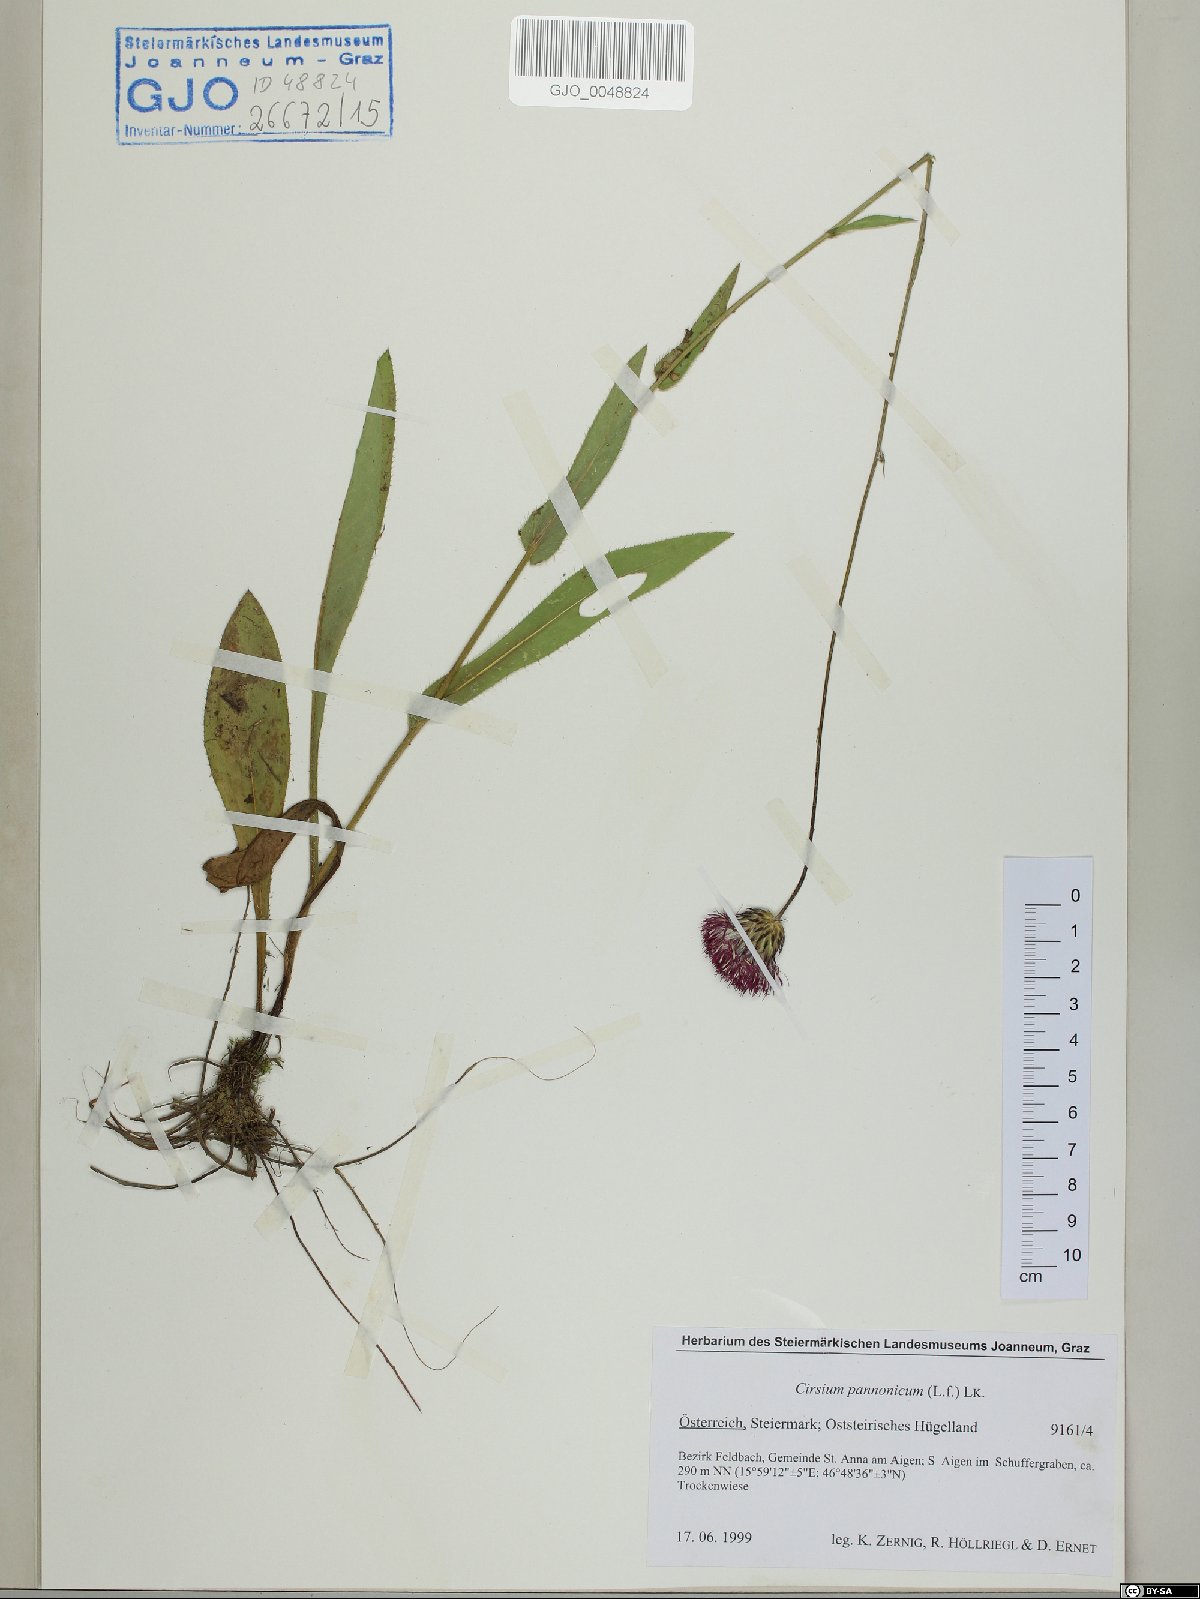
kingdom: Plantae
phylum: Tracheophyta
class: Magnoliopsida
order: Asterales
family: Asteraceae
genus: Cirsium
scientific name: Cirsium pannonicum
